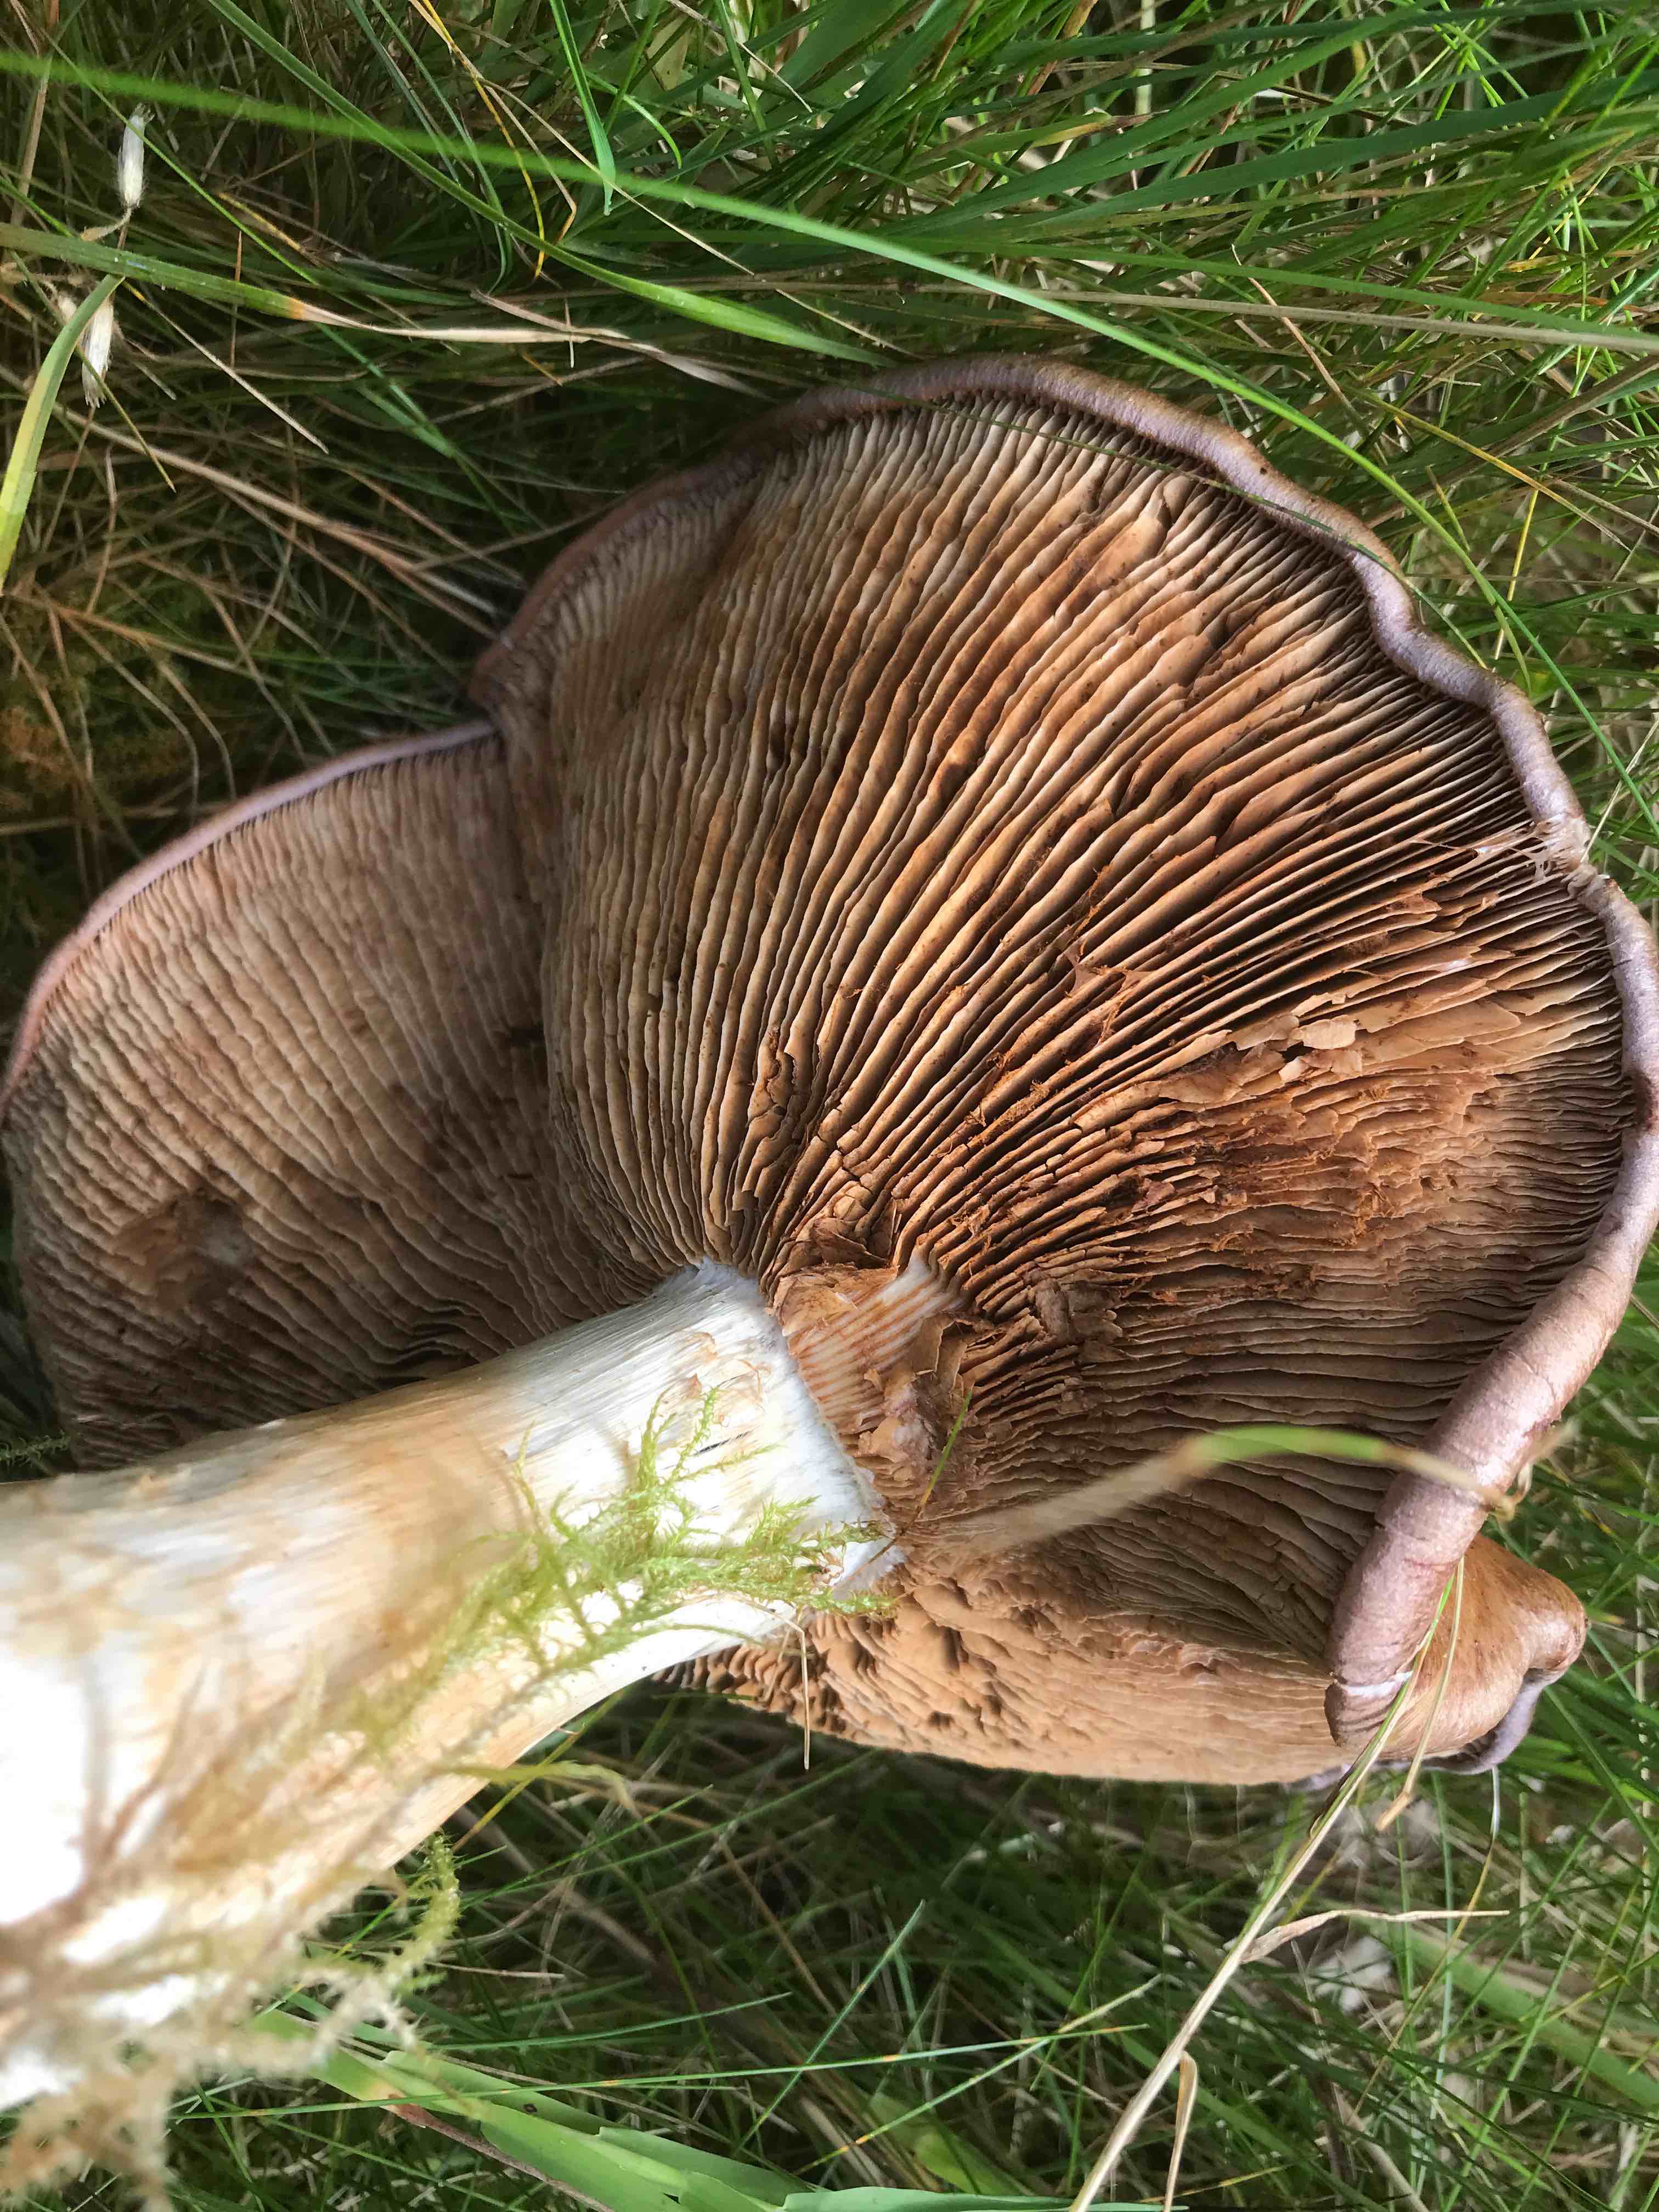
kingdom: Fungi
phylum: Basidiomycota
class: Agaricomycetes
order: Agaricales
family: Cortinariaceae
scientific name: Cortinariaceae
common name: slørhatfamilien
